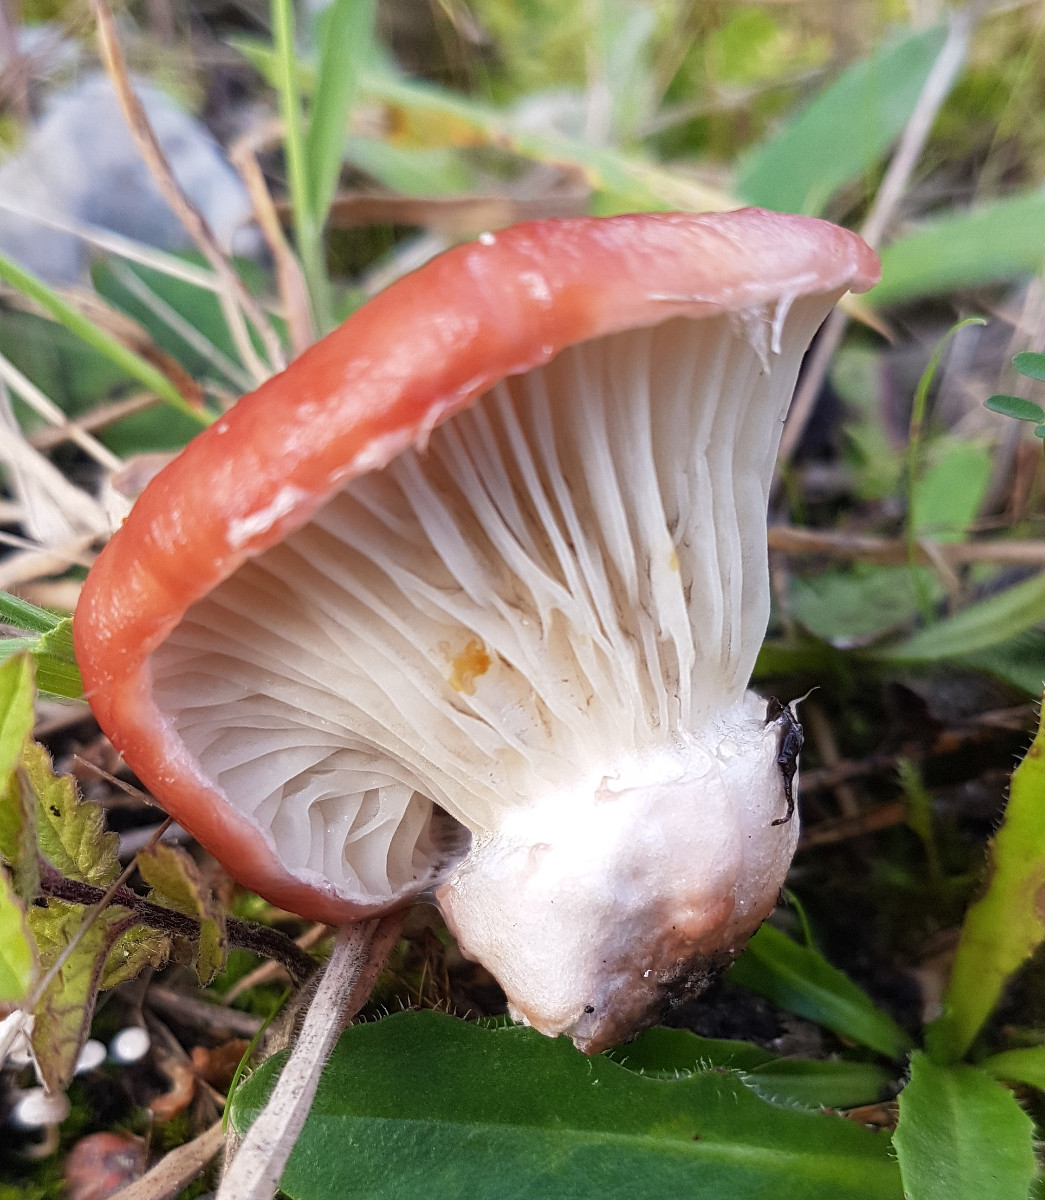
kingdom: Fungi
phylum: Basidiomycota
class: Agaricomycetes
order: Boletales
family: Gomphidiaceae
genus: Gomphidius
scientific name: Gomphidius roseus
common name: rosenrød slimslør
